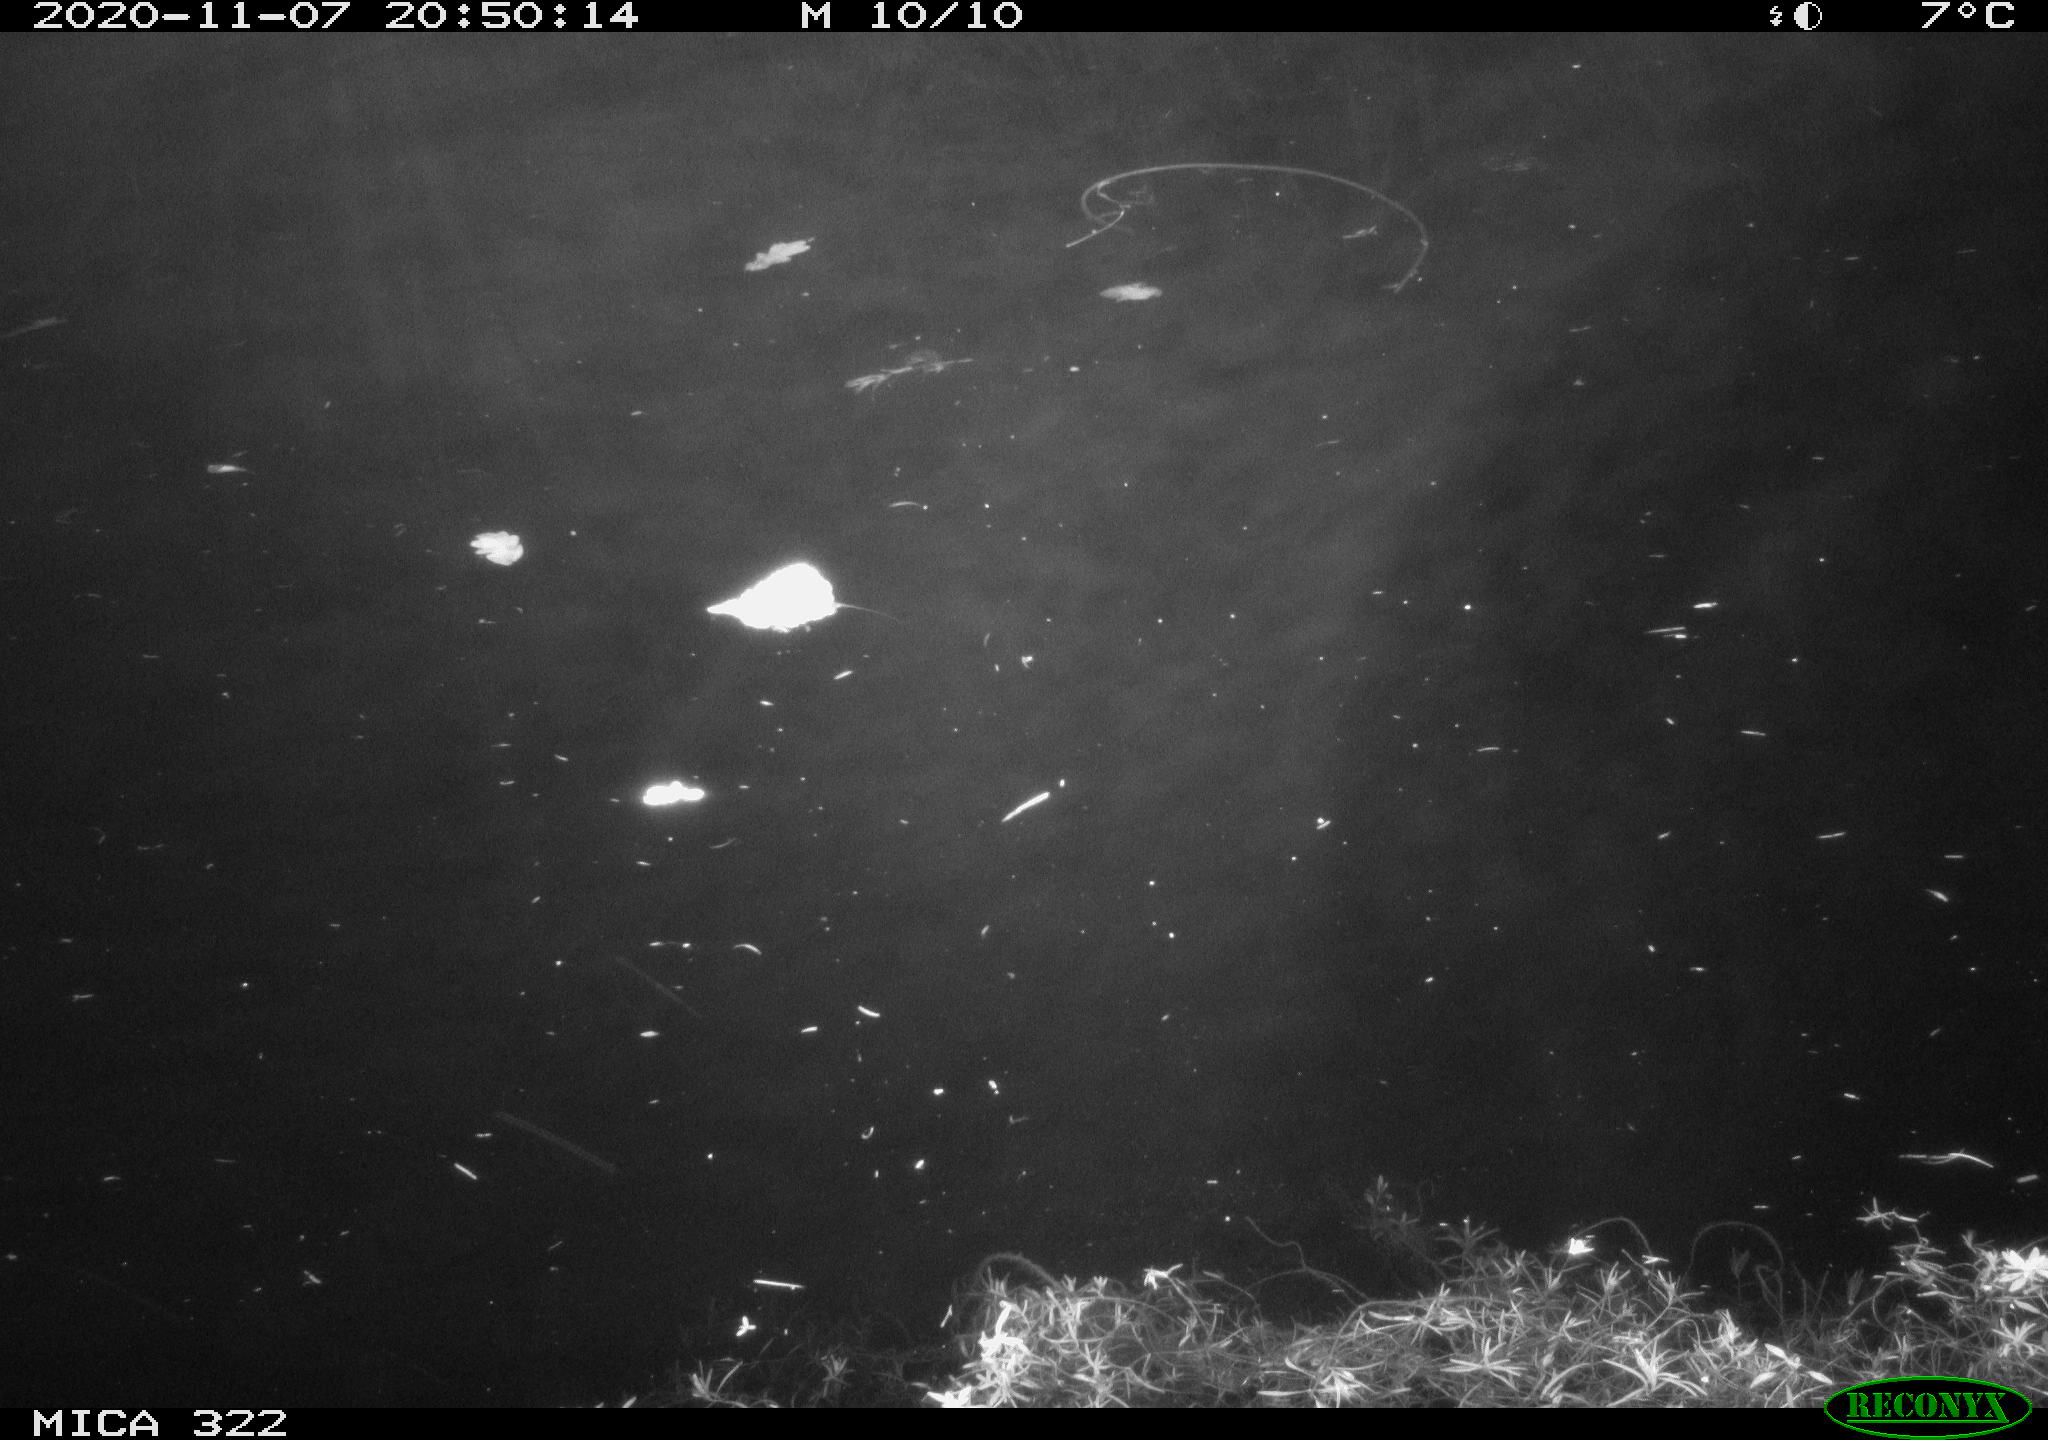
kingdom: Animalia
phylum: Chordata
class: Mammalia
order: Rodentia
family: Cricetidae
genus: Ondatra
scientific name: Ondatra zibethicus
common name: Muskrat
